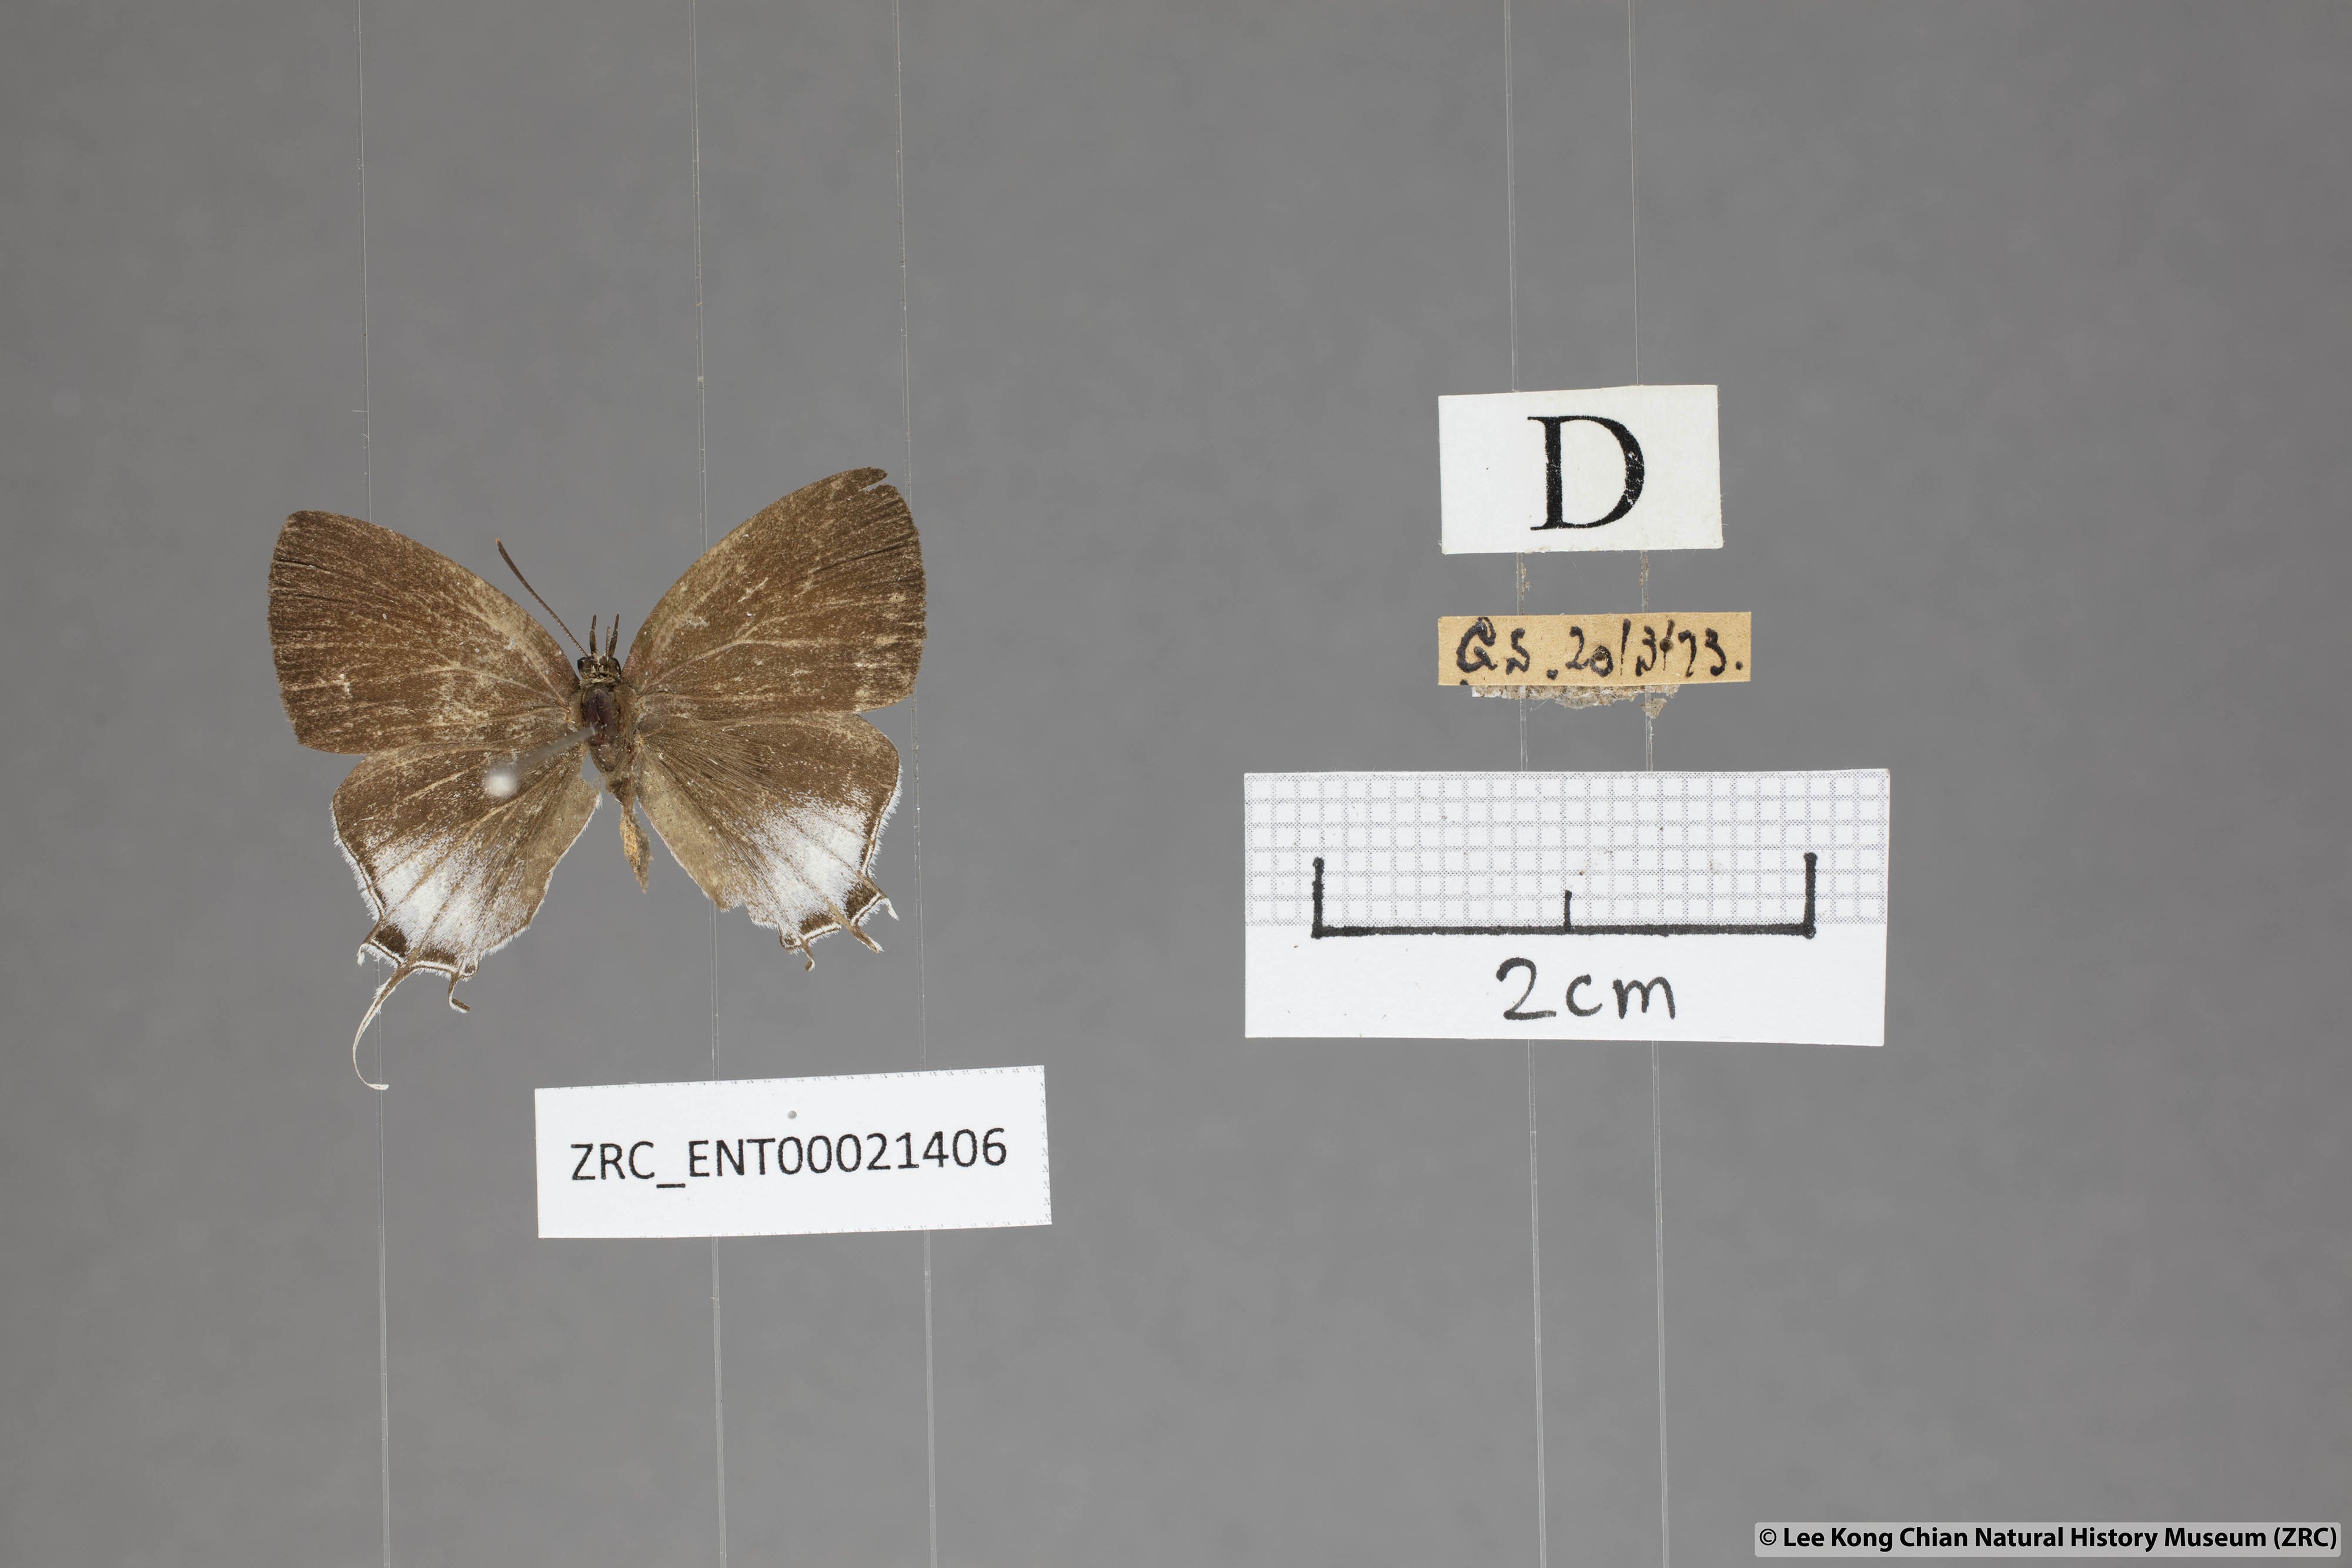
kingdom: Animalia
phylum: Arthropoda
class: Insecta
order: Lepidoptera
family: Lycaenidae
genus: Drupadia
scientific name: Drupadia scaeva
